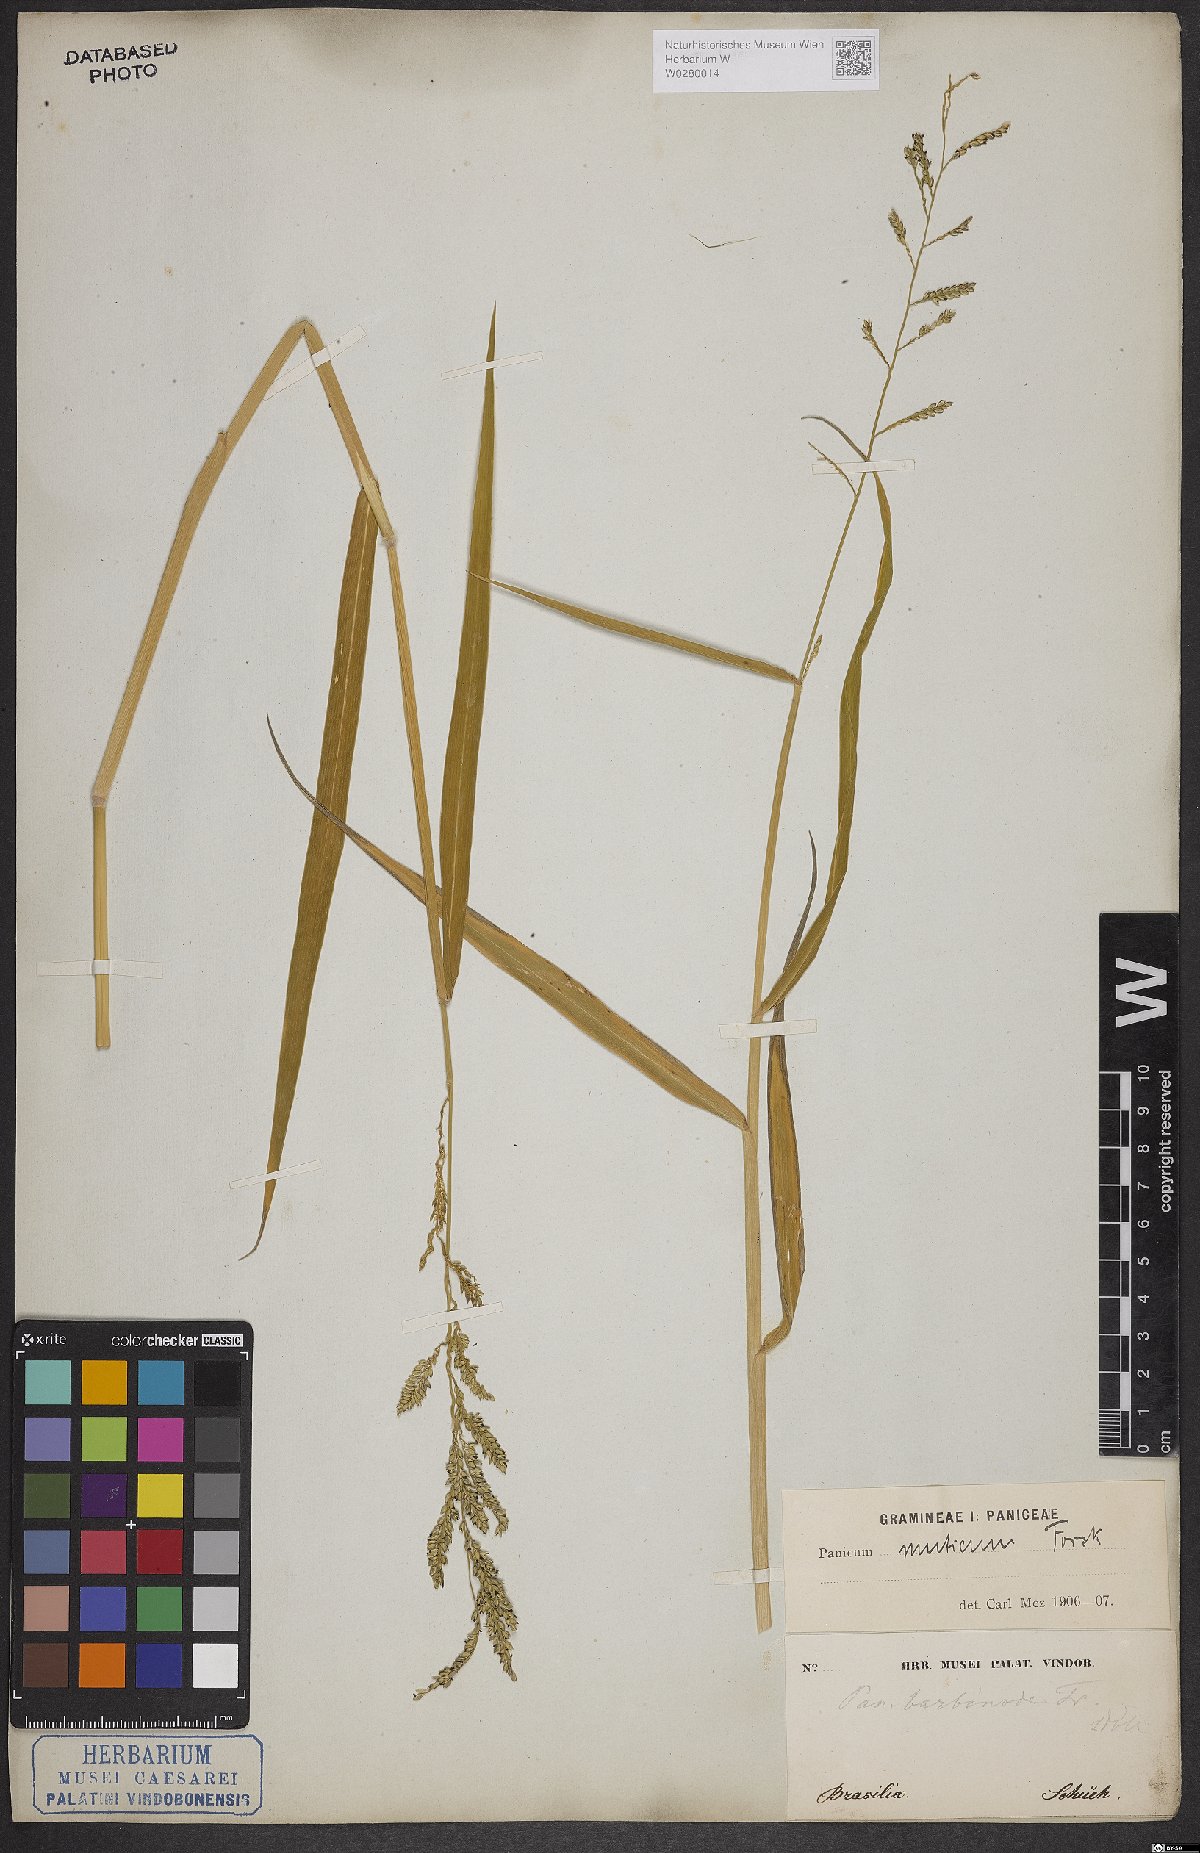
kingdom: Plantae
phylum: Tracheophyta
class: Liliopsida
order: Poales
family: Poaceae
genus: Urochloa
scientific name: Urochloa mutica
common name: Para grass
